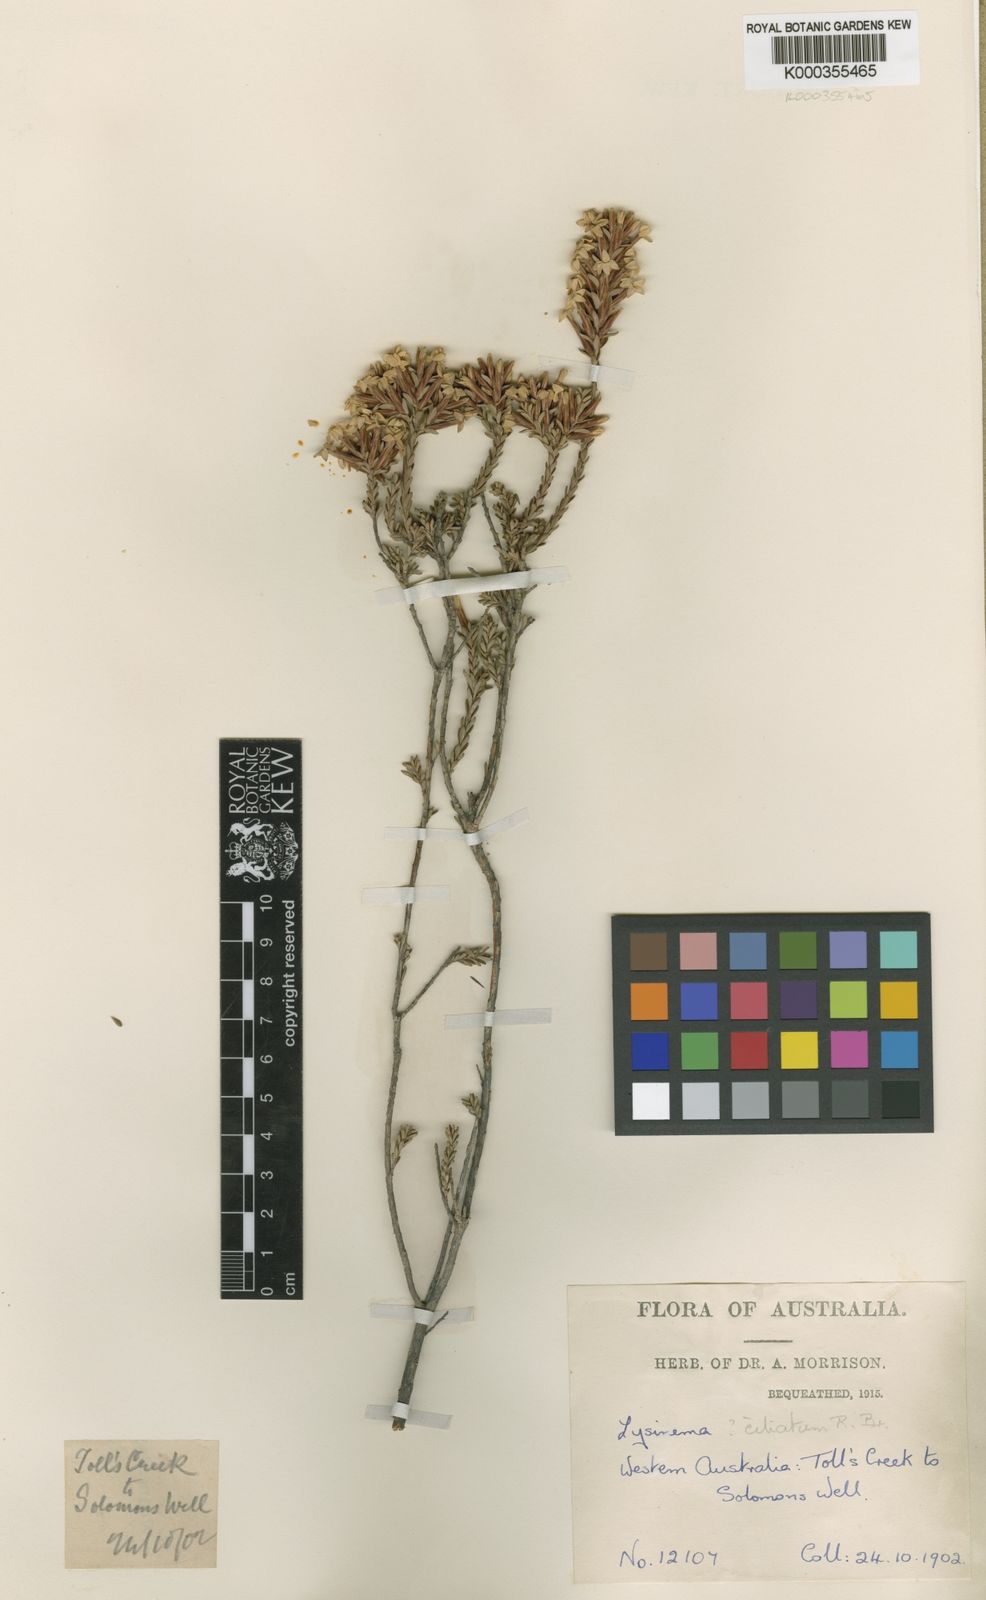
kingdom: Plantae
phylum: Tracheophyta
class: Magnoliopsida
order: Ericales
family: Ericaceae
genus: Lysinema
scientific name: Lysinema ciliatum
